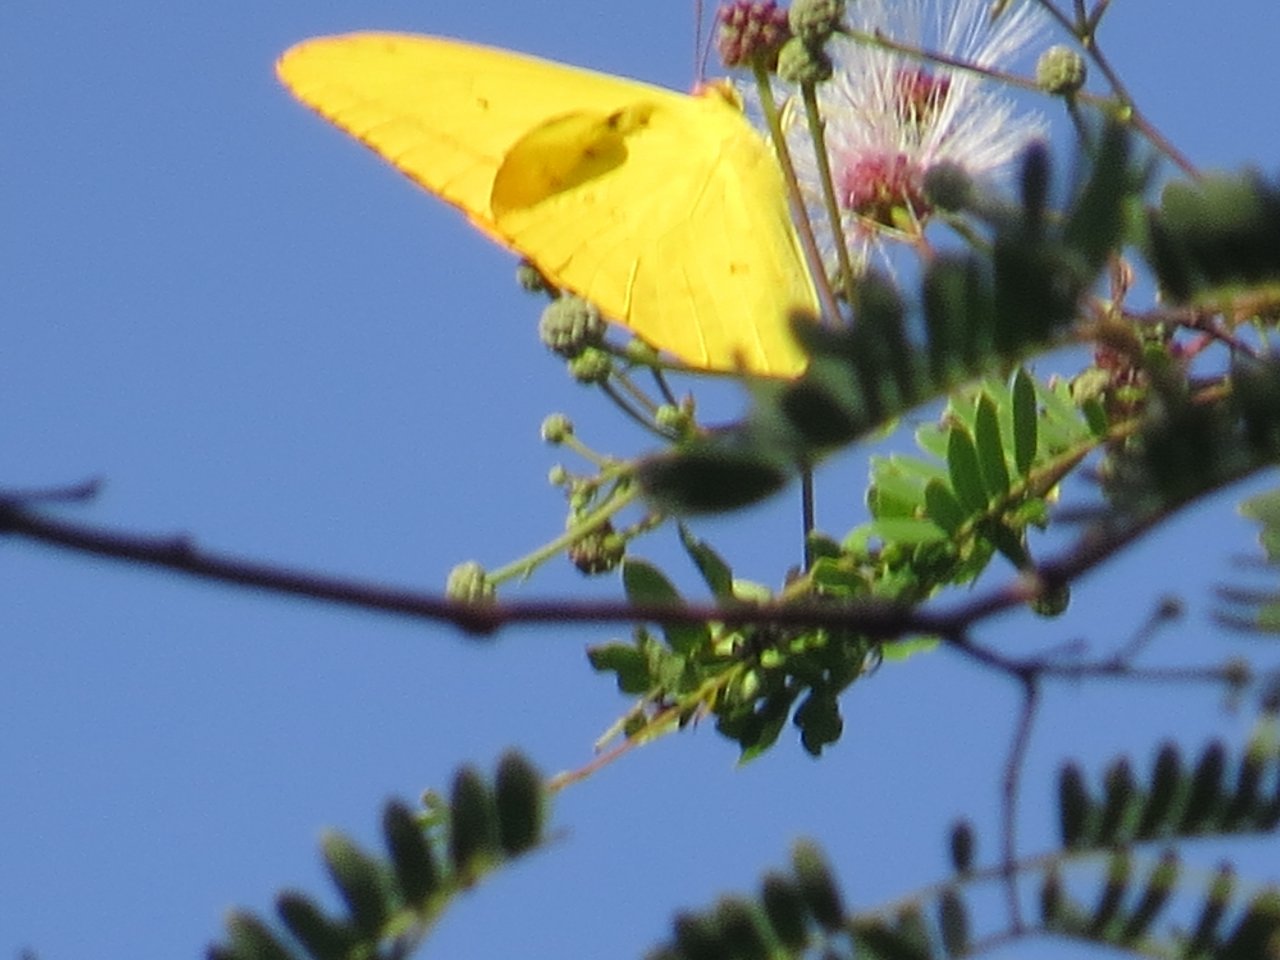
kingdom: Animalia
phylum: Arthropoda
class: Insecta
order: Lepidoptera
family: Pieridae
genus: Phoebis
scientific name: Phoebis agarithe
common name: Large Orange Sulphur
